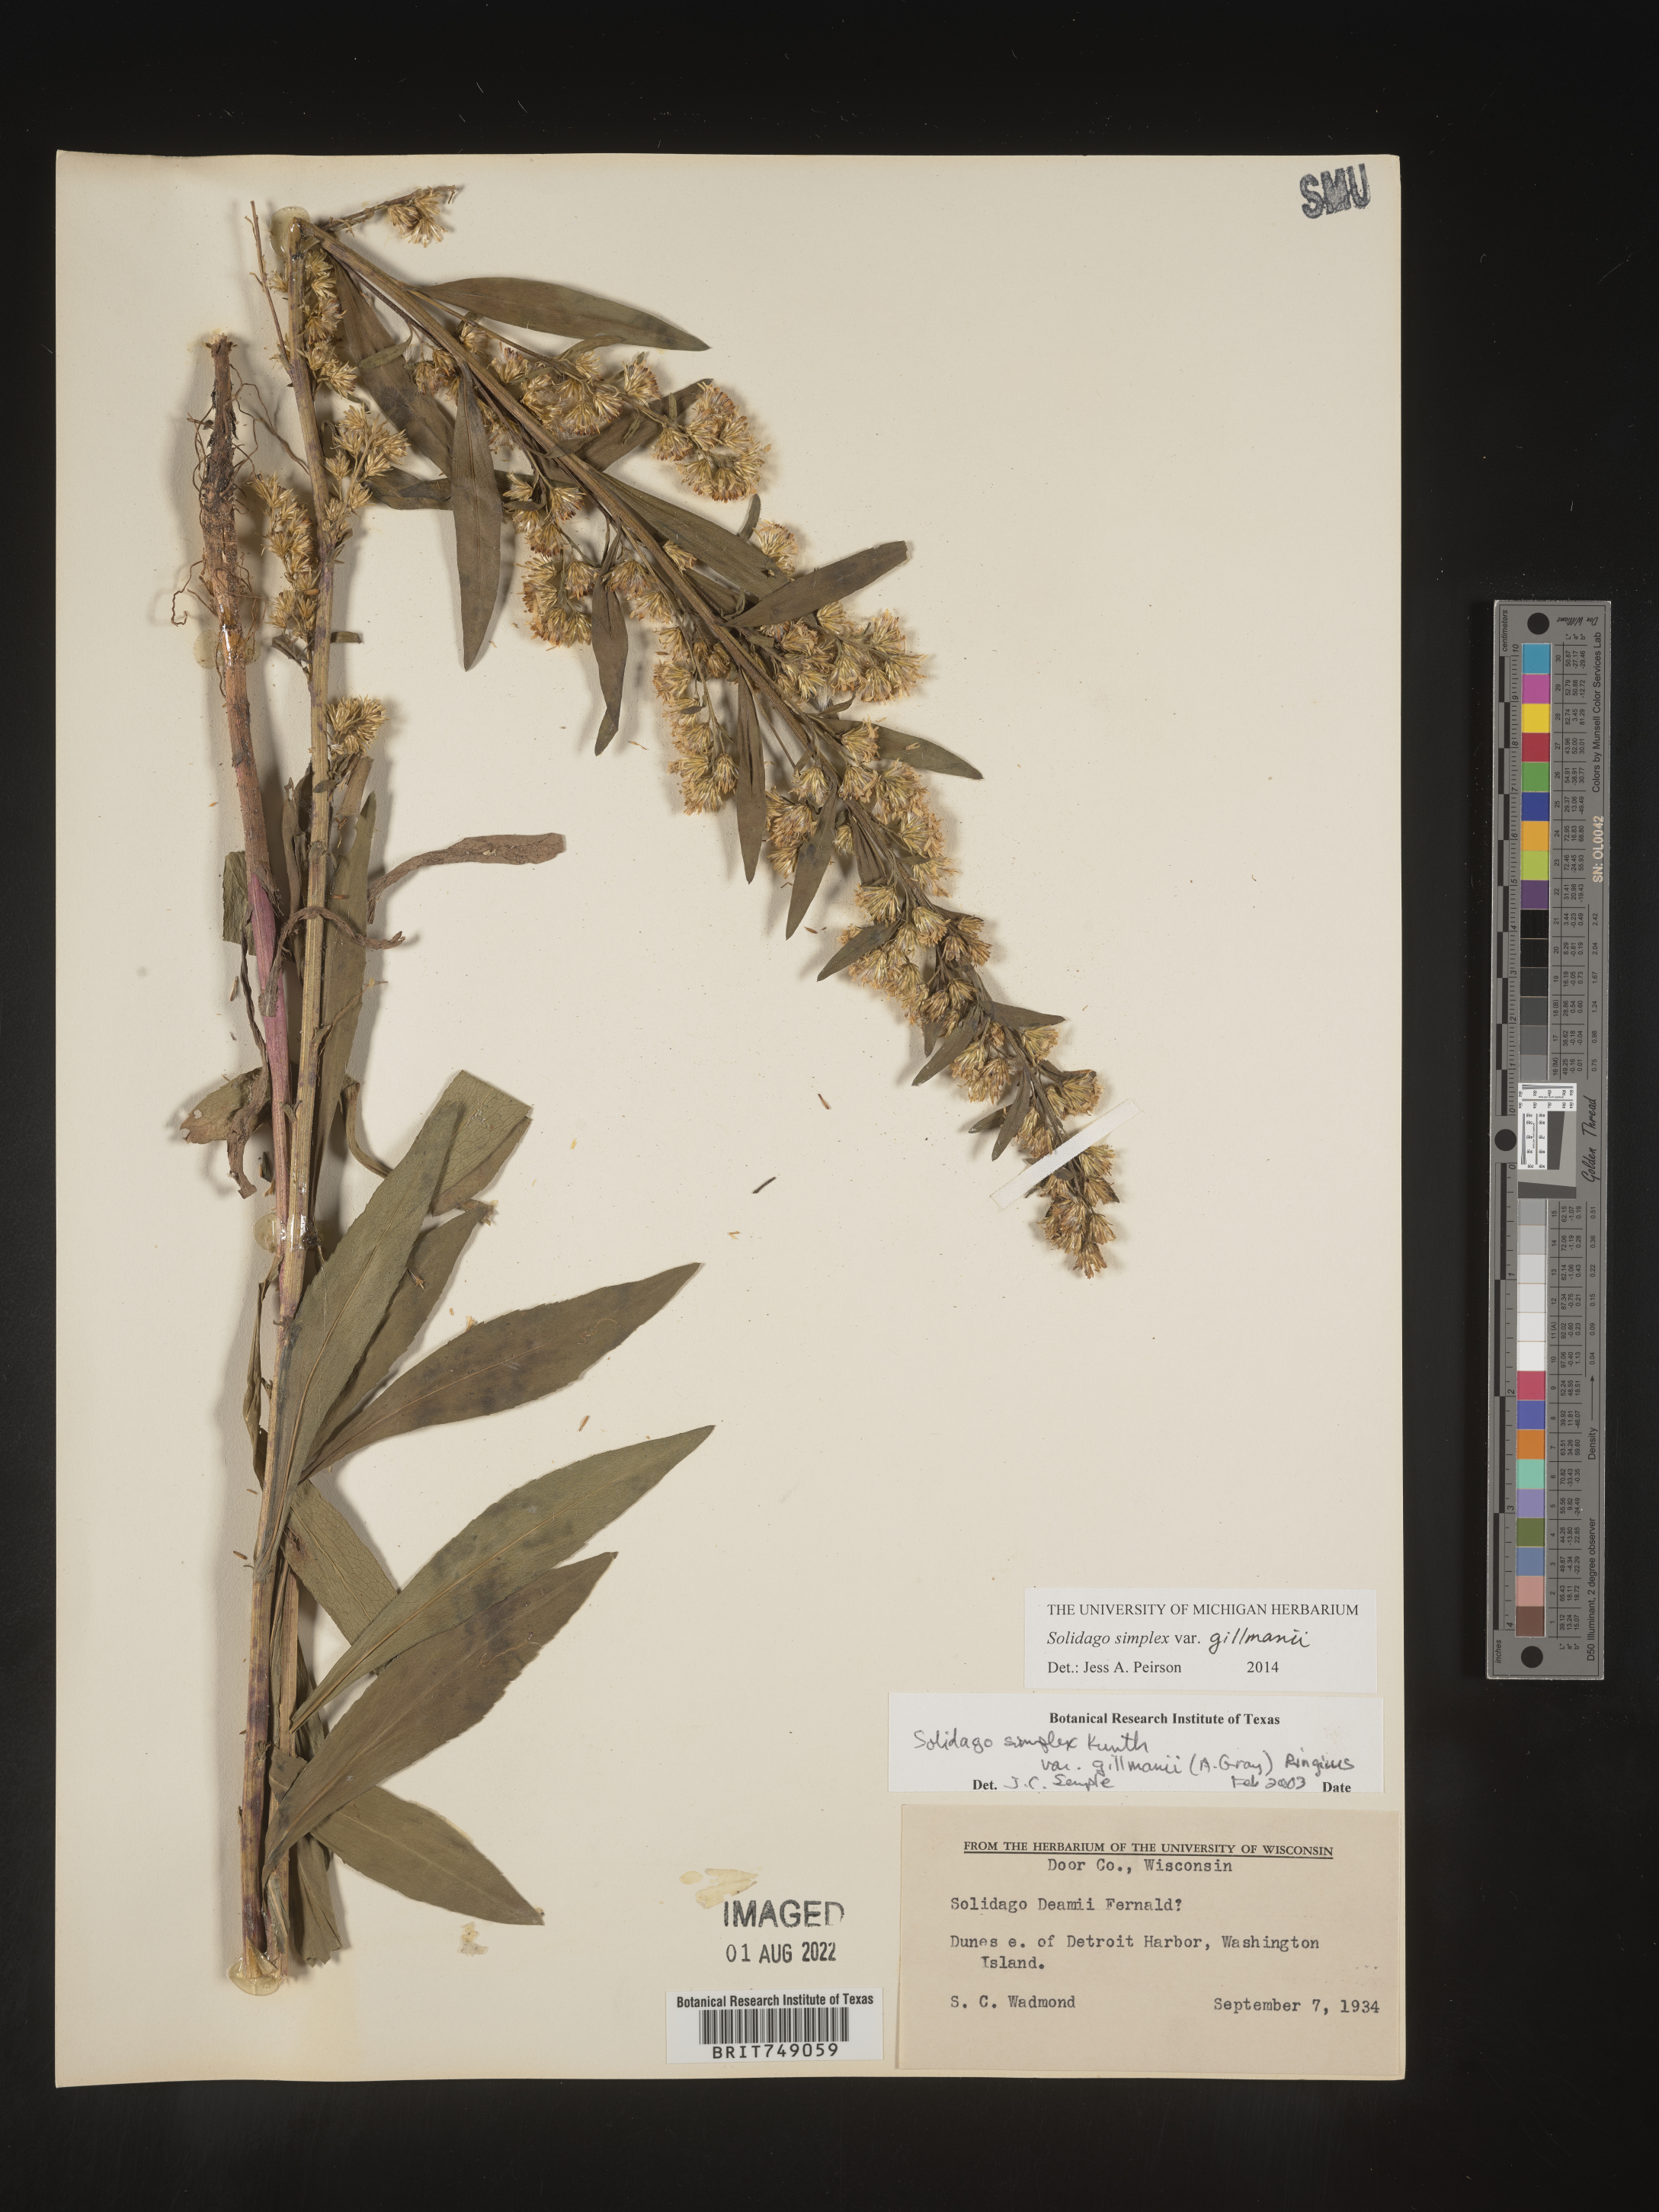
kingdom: Plantae
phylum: Tracheophyta
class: Magnoliopsida
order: Asterales
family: Asteraceae
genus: Solidago
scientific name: Solidago simplex
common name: Sticky goldenrod
